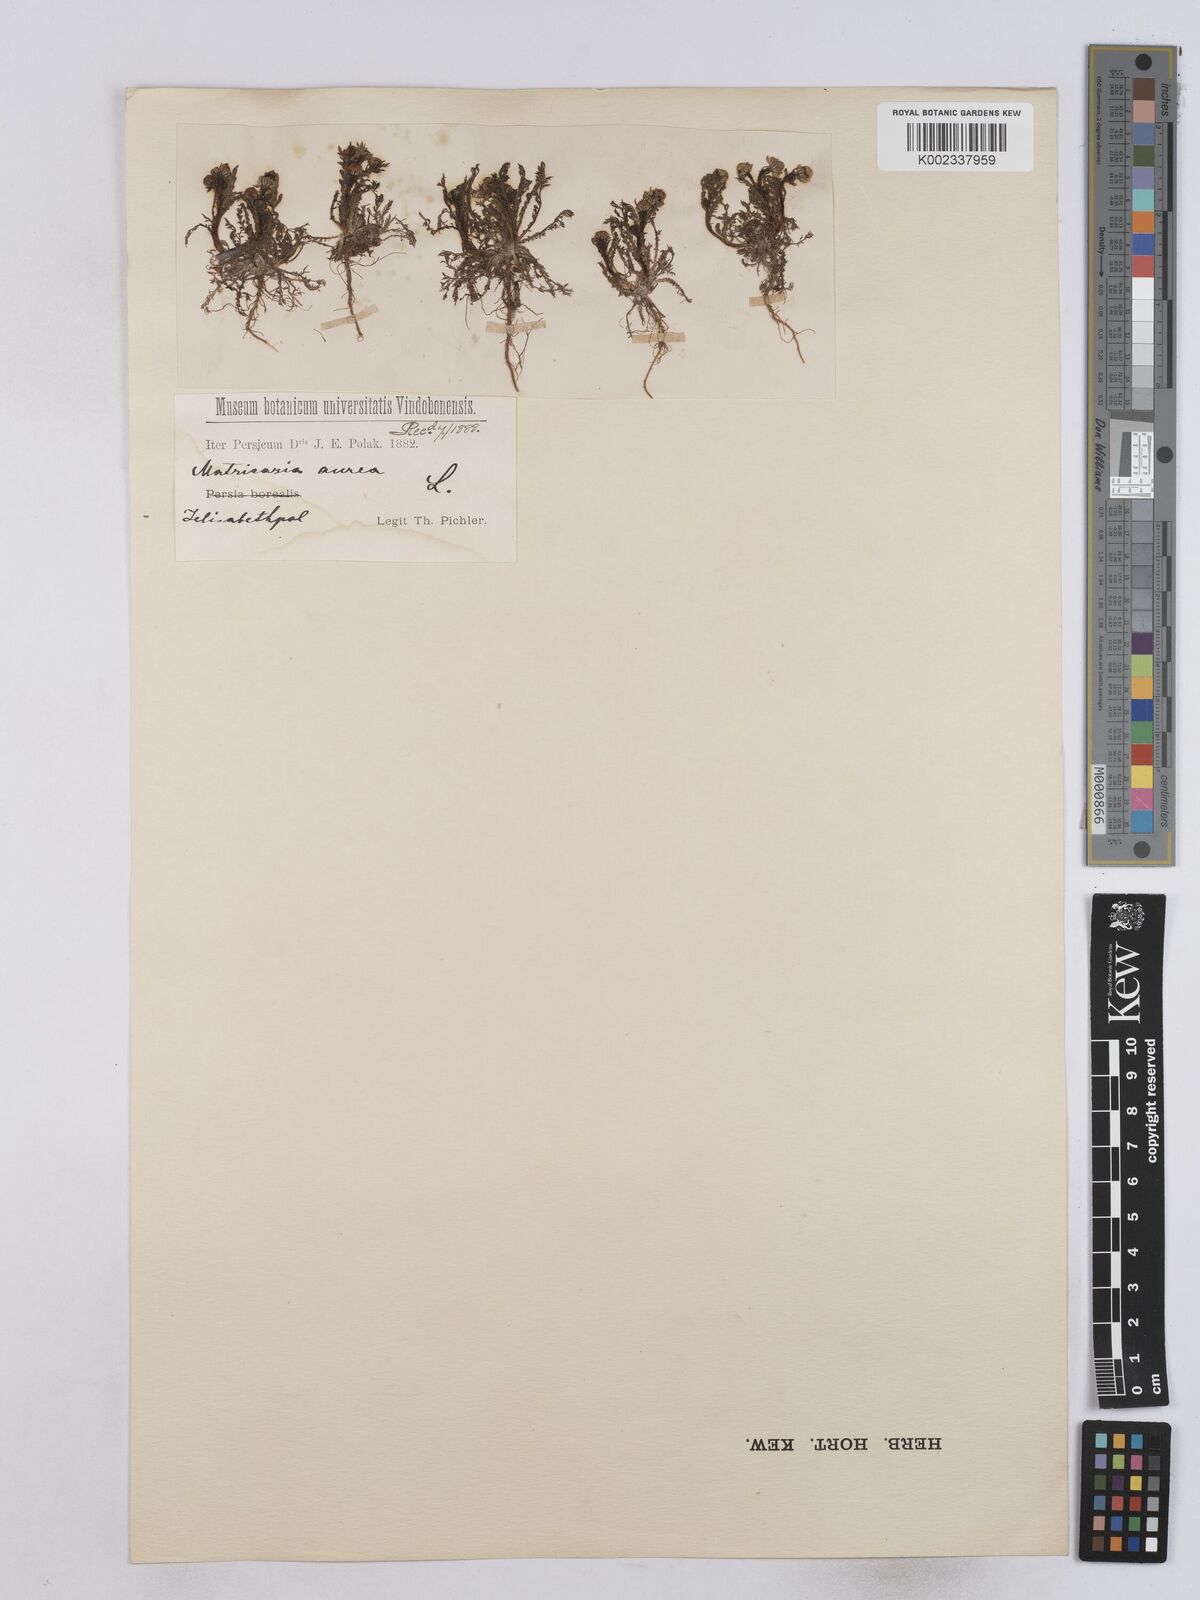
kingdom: Plantae
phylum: Tracheophyta
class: Magnoliopsida
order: Asterales
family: Asteraceae
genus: Matricaria
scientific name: Matricaria aurea
